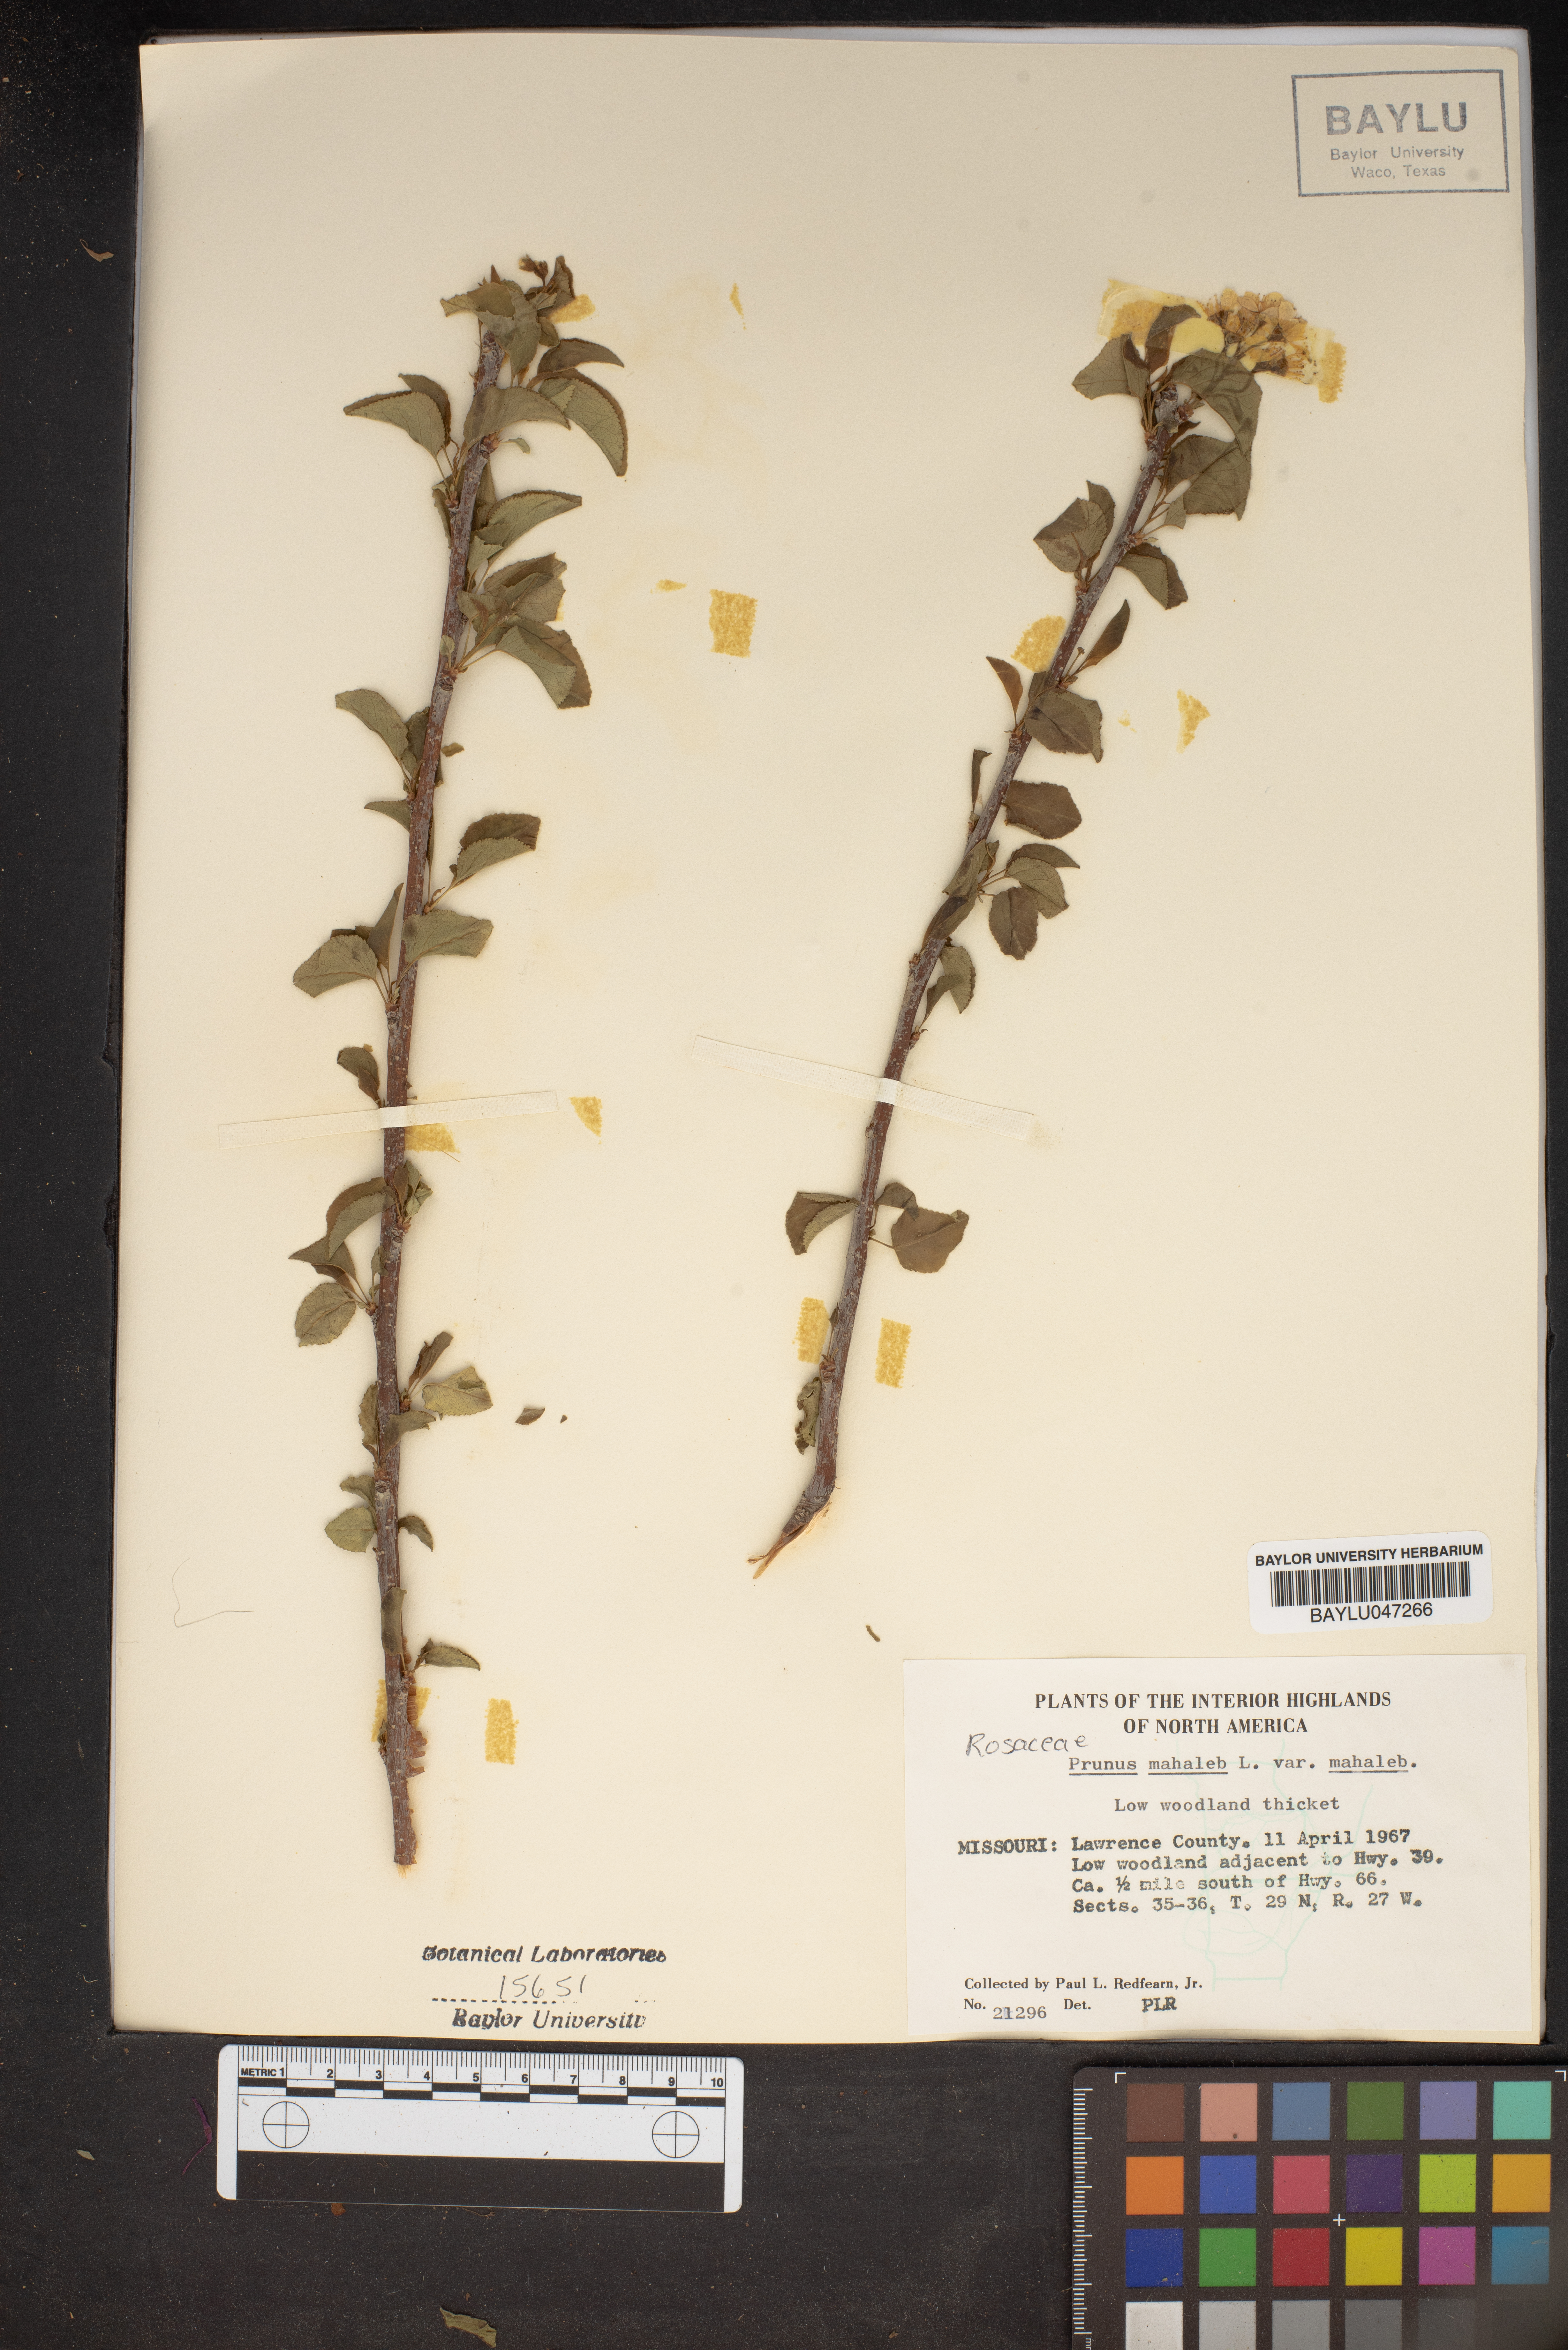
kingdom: Plantae
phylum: Tracheophyta
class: Magnoliopsida
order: Rosales
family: Rosaceae
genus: Prunus
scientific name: Prunus mahaleb
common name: Mahaleb cherry
